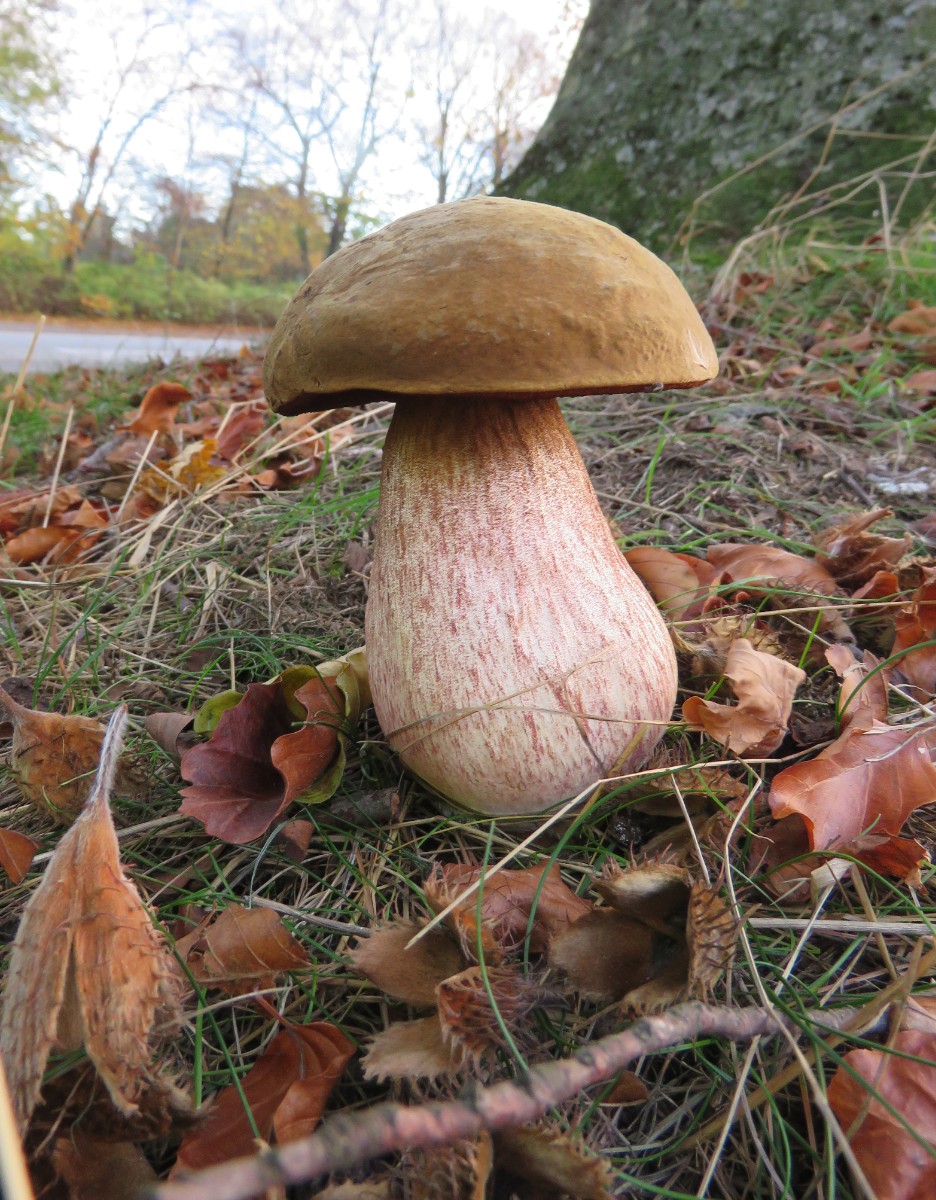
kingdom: Fungi
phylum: Basidiomycota
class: Agaricomycetes
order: Boletales
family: Boletaceae
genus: Neoboletus
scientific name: Neoboletus erythropus
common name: punktstokket indigorørhat
